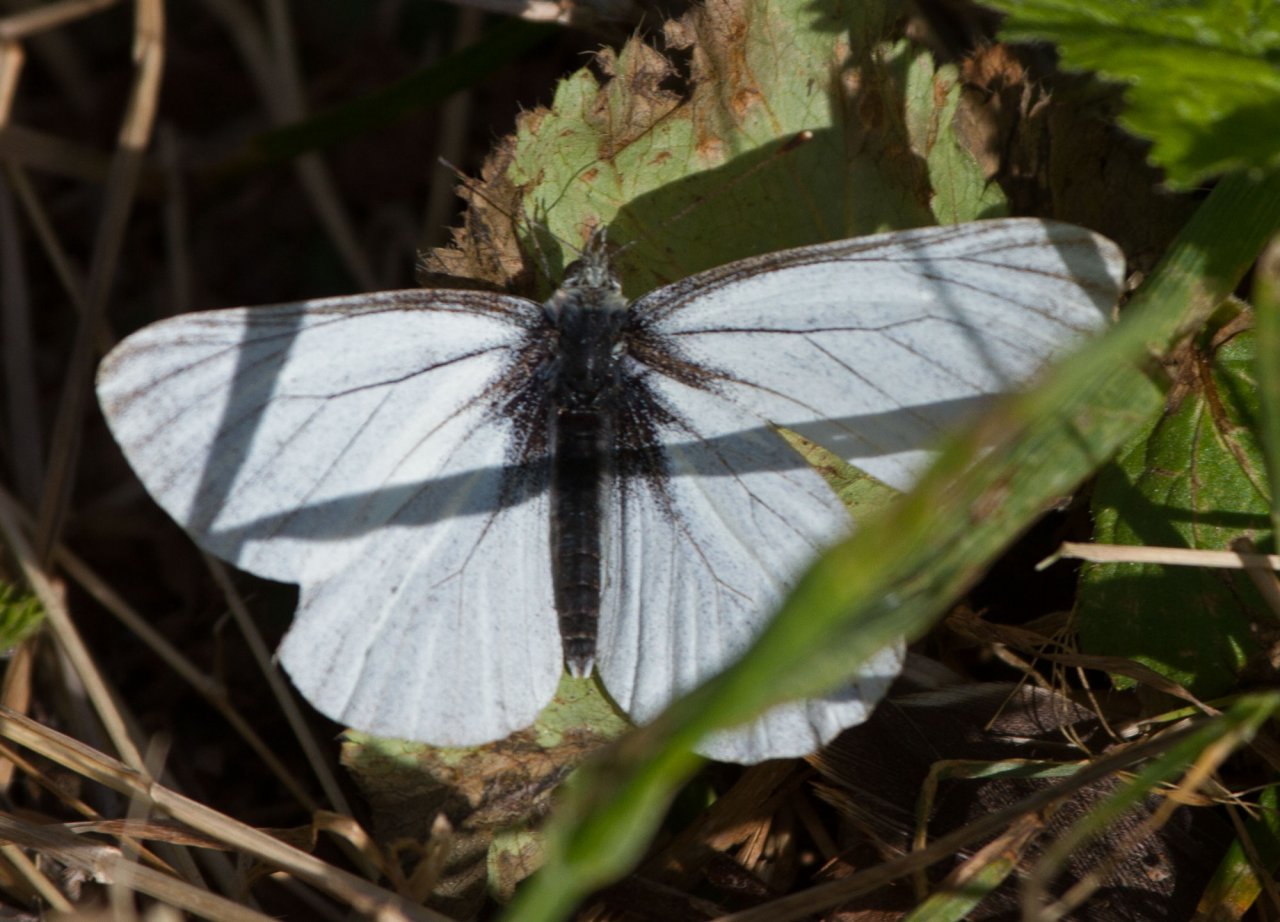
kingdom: Animalia
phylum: Arthropoda
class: Insecta
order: Lepidoptera
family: Pieridae
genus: Pieris
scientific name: Pieris angelika
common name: Arctic White
